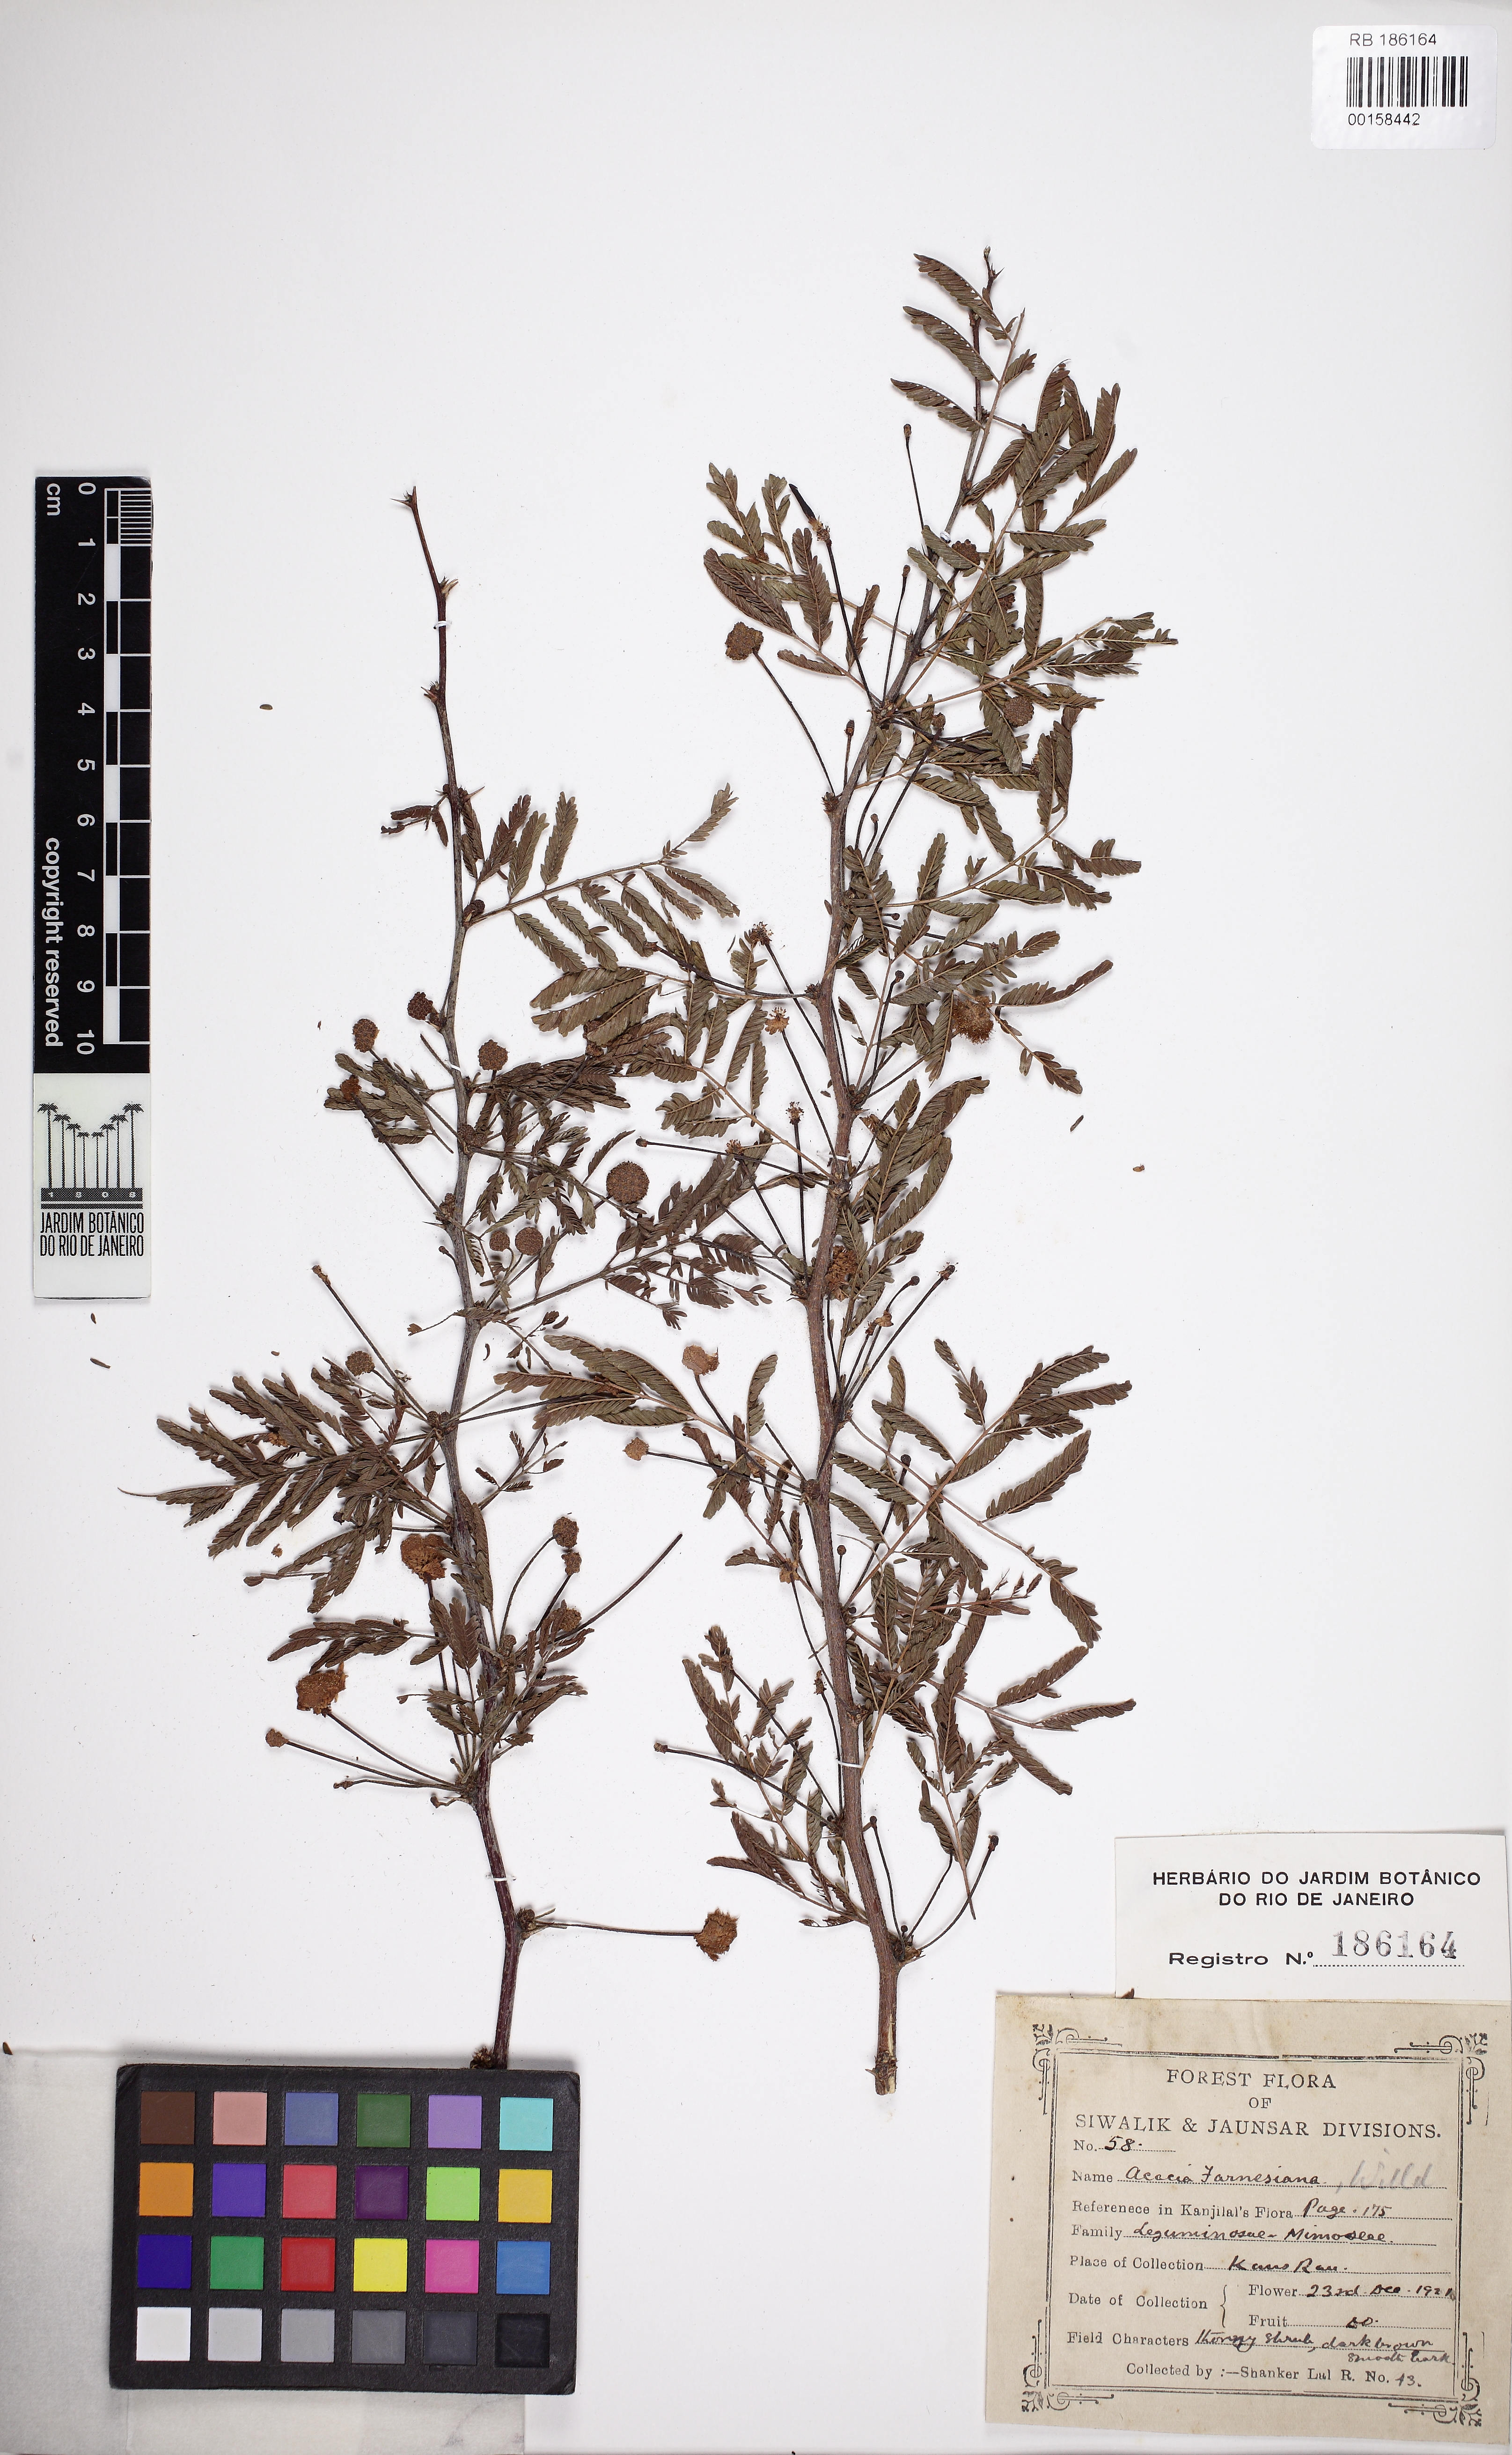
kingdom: Plantae
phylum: Tracheophyta
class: Magnoliopsida
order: Fabales
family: Fabaceae
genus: Vachellia
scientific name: Vachellia farnesiana
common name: Sweet acacia
